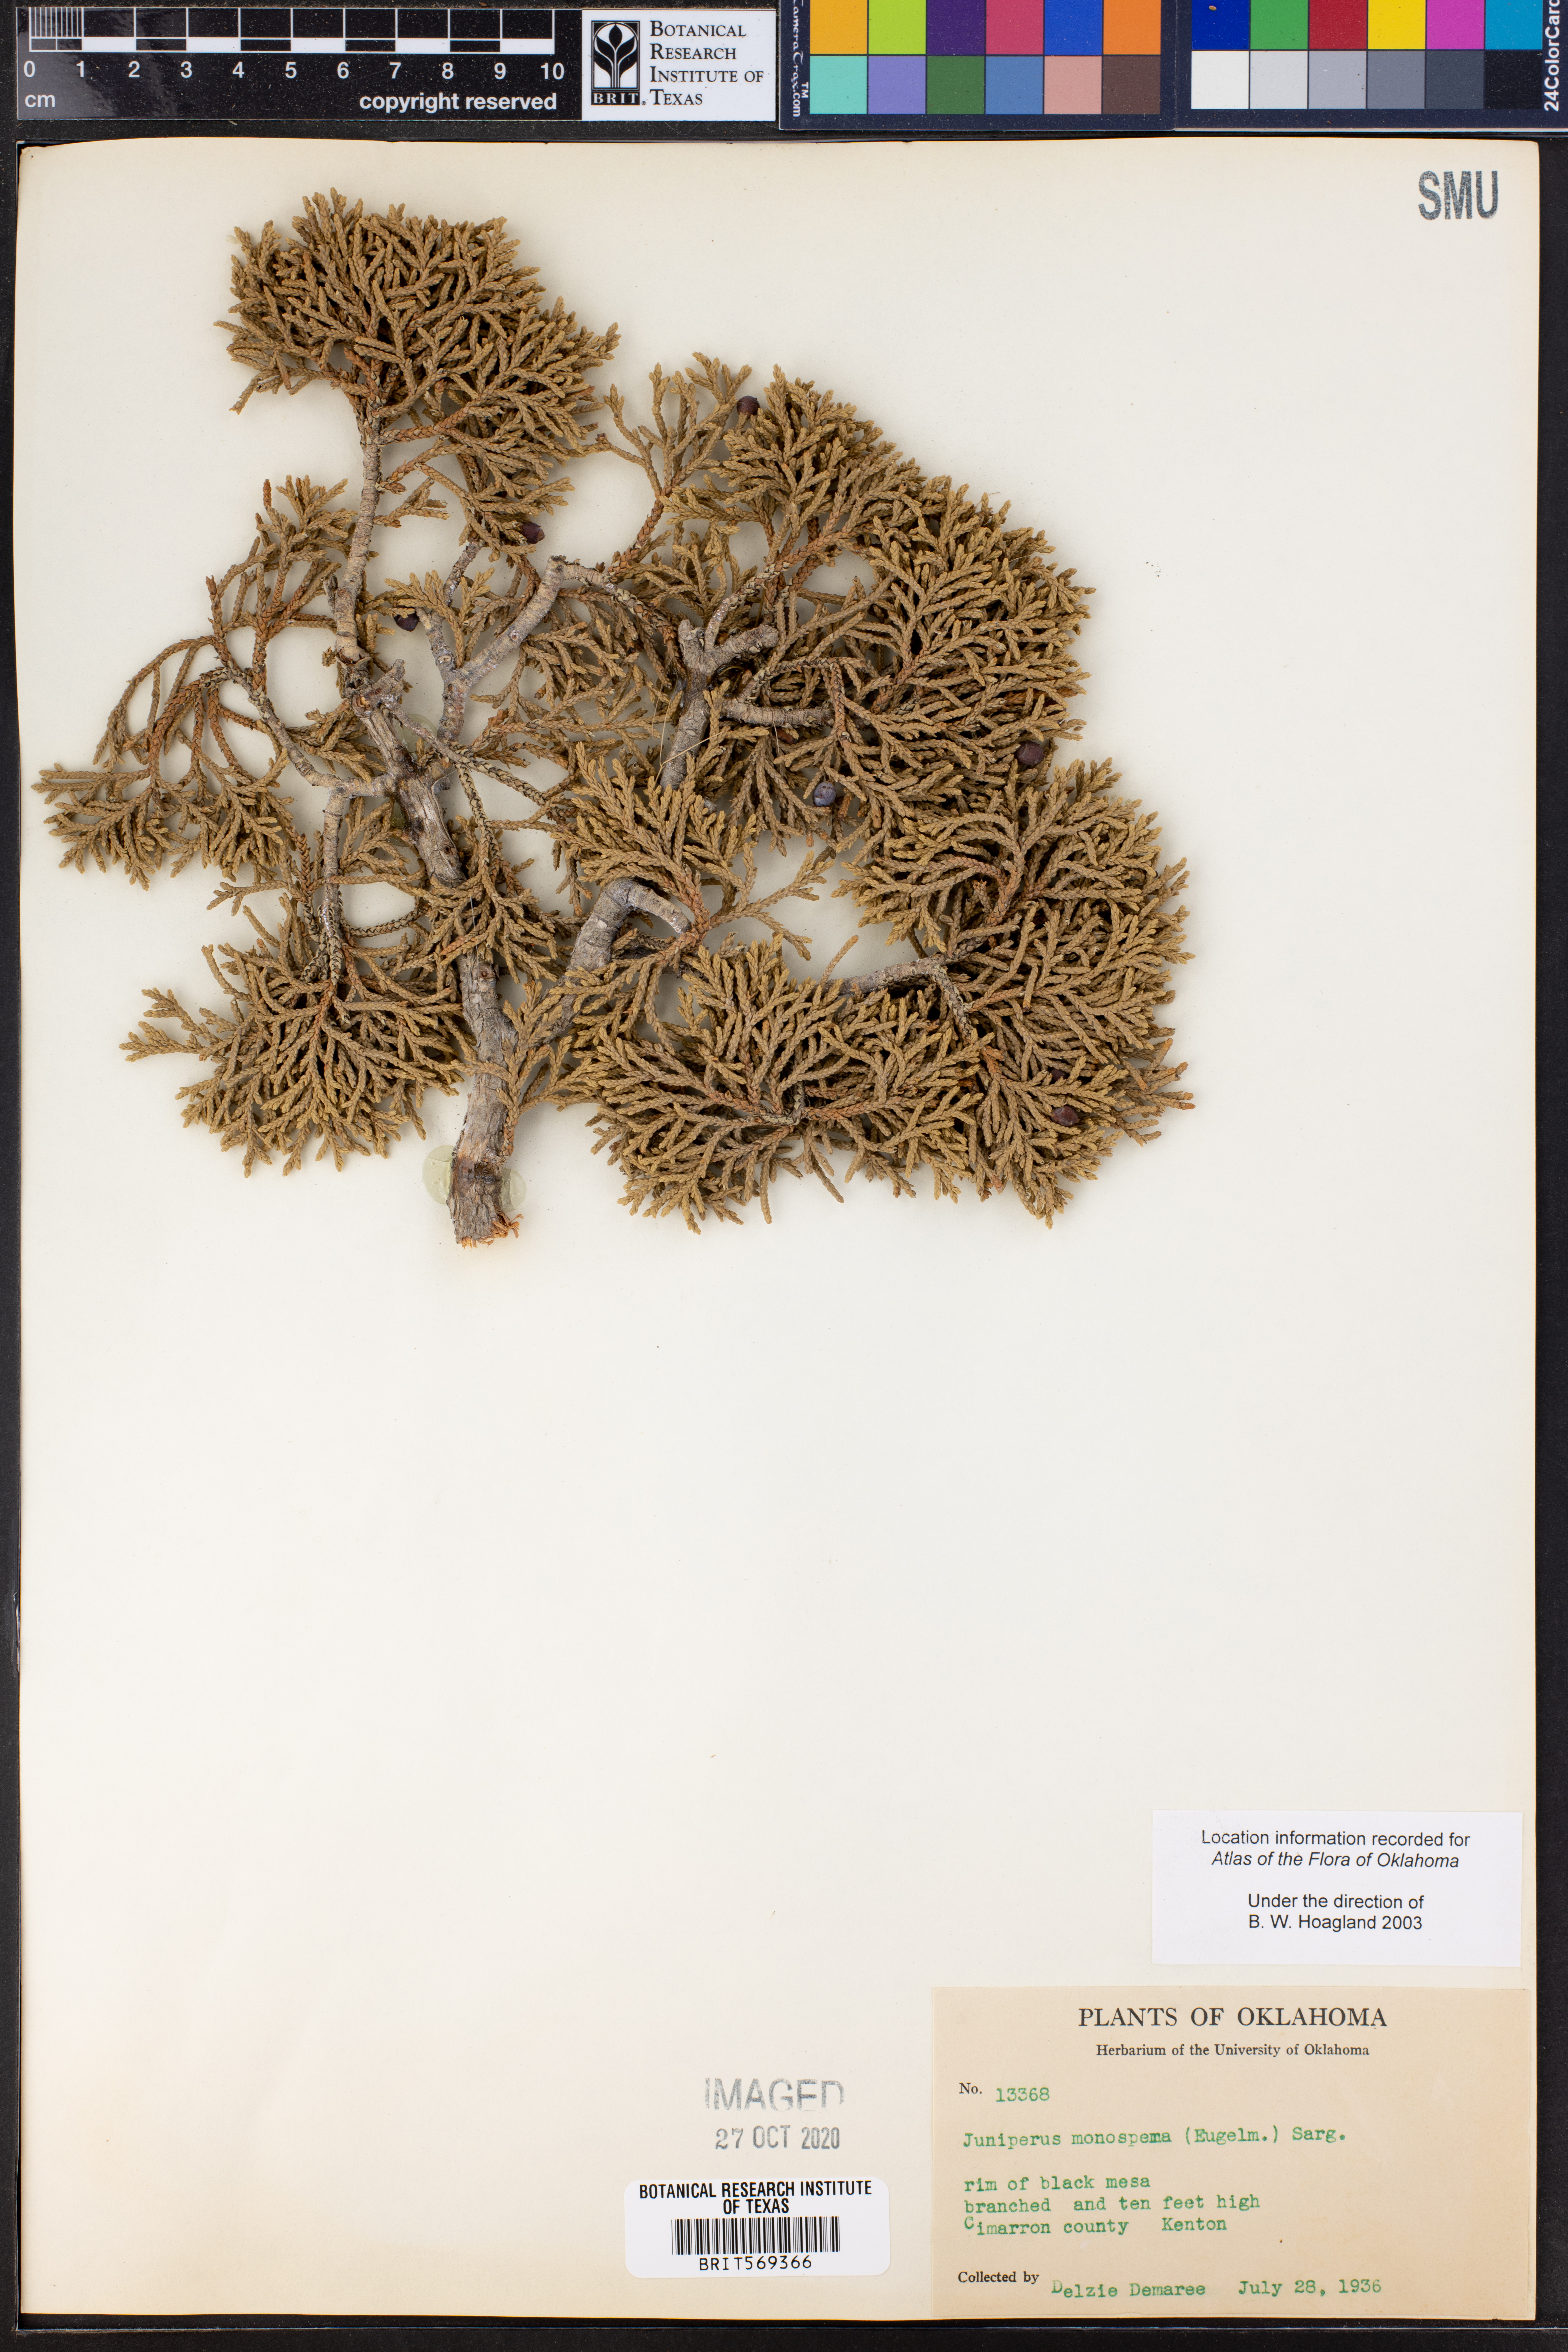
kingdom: Plantae
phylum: Tracheophyta
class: Pinopsida
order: Pinales
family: Cupressaceae
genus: Juniperus
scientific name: Juniperus monosperma
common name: One-seed juniper
